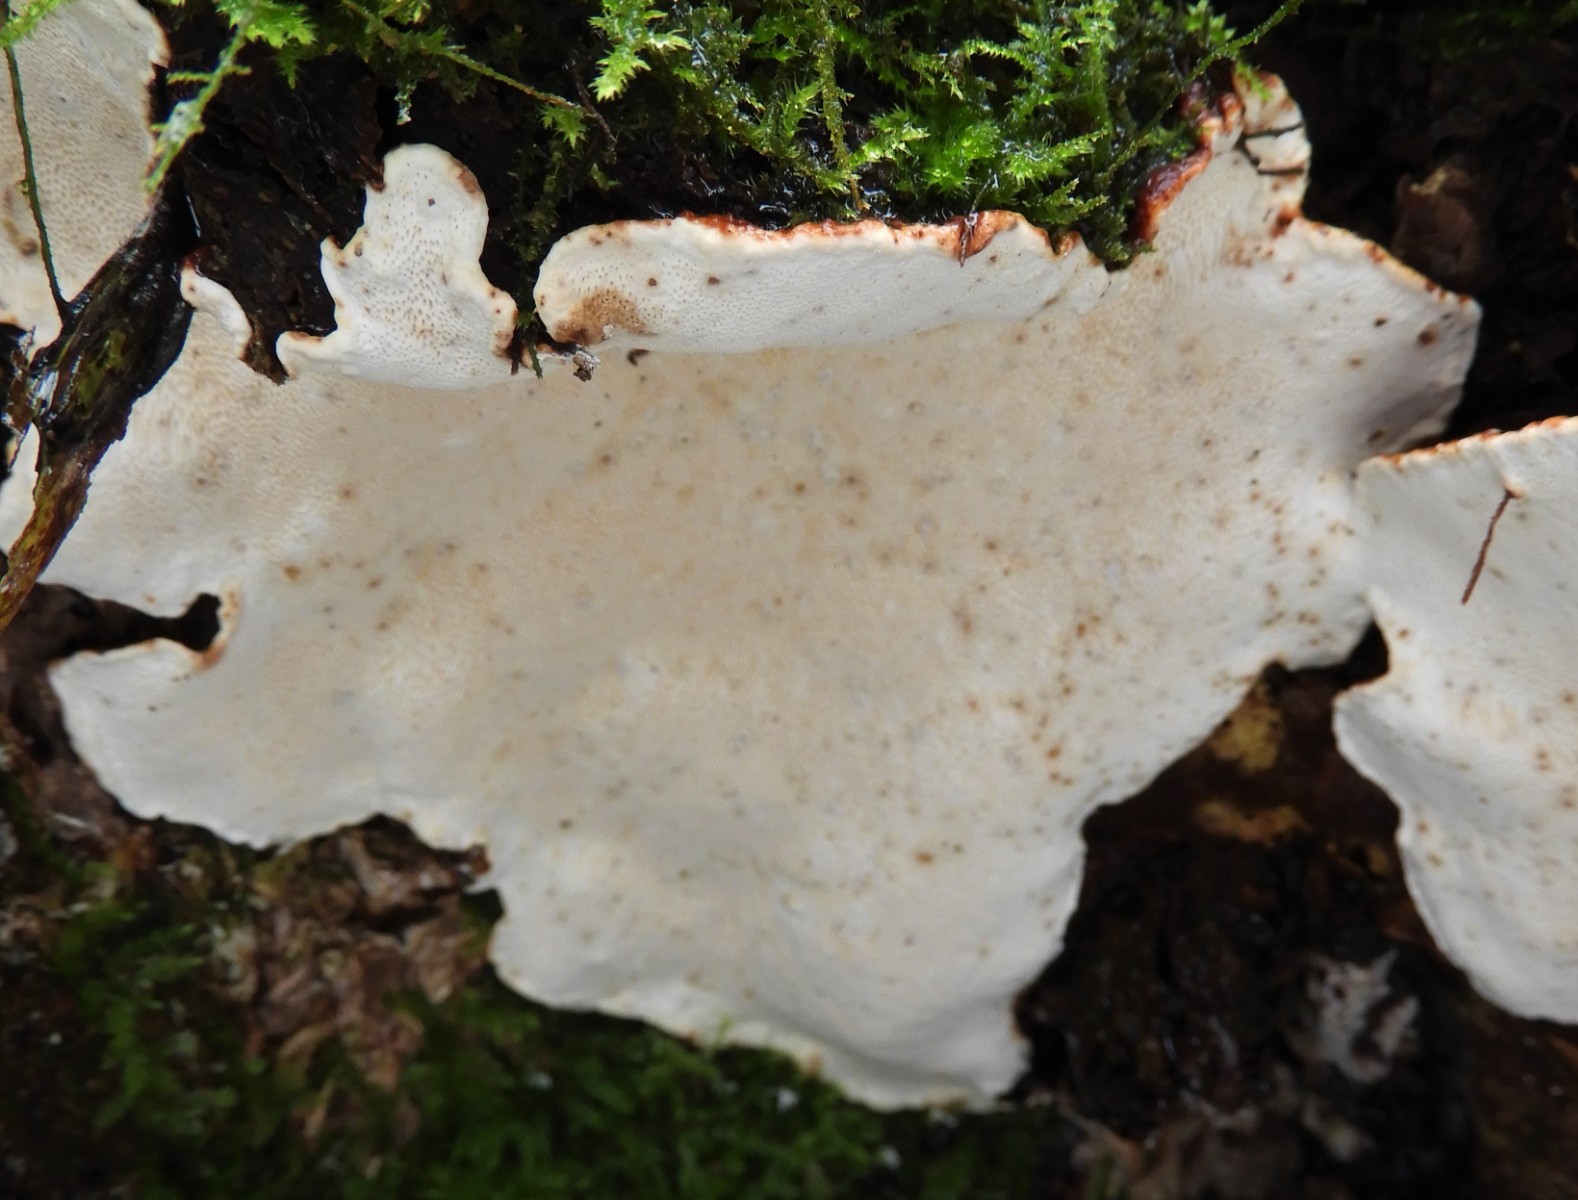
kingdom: Fungi
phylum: Basidiomycota
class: Agaricomycetes
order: Russulales
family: Bondarzewiaceae
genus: Heterobasidion
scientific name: Heterobasidion annosum
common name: almindelig rodfordærver
